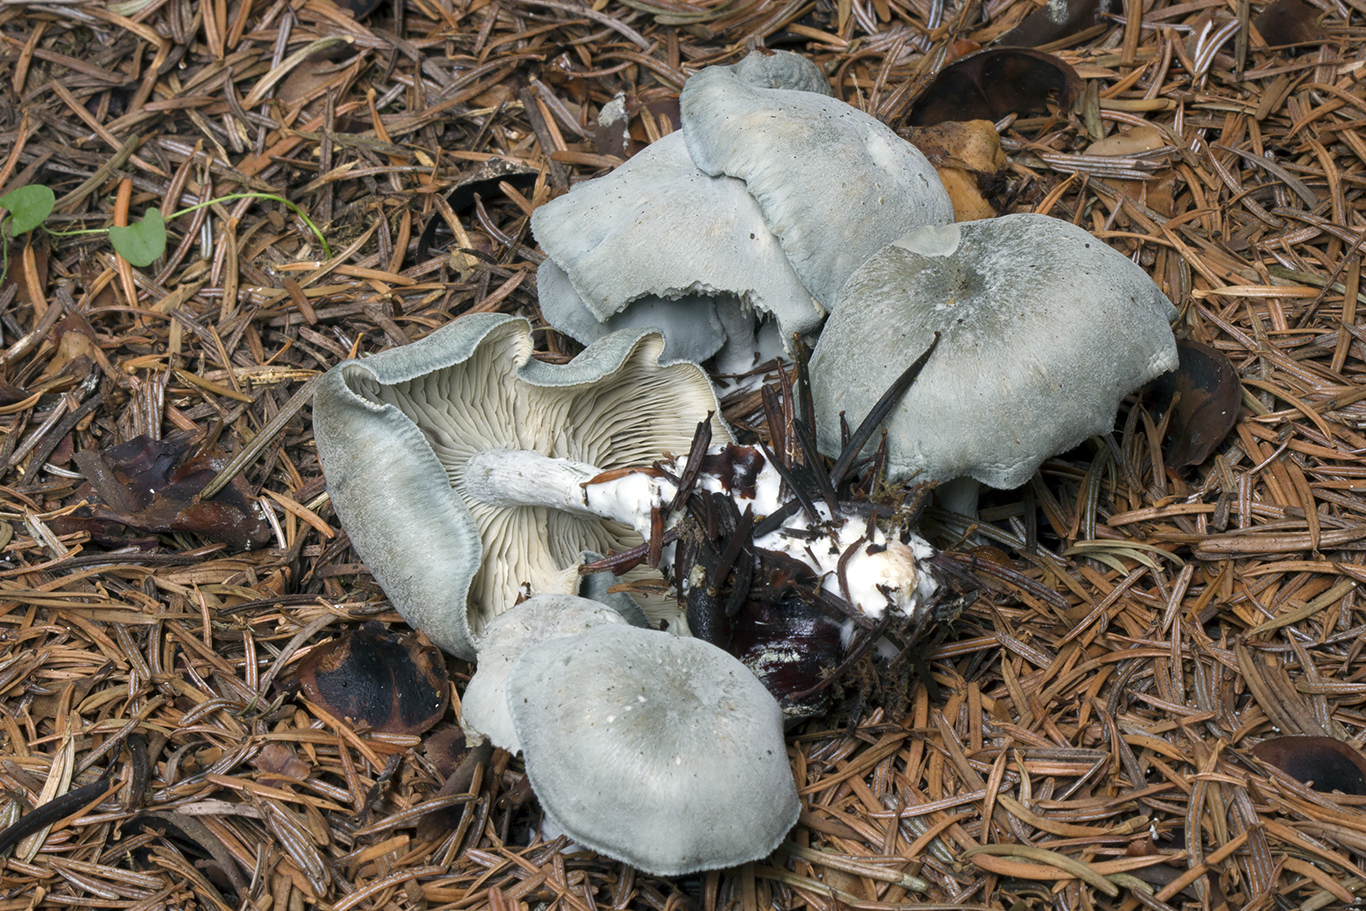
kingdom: Fungi
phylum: Basidiomycota
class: Agaricomycetes
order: Agaricales
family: Tricholomataceae
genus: Clitocybe
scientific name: Clitocybe odora
